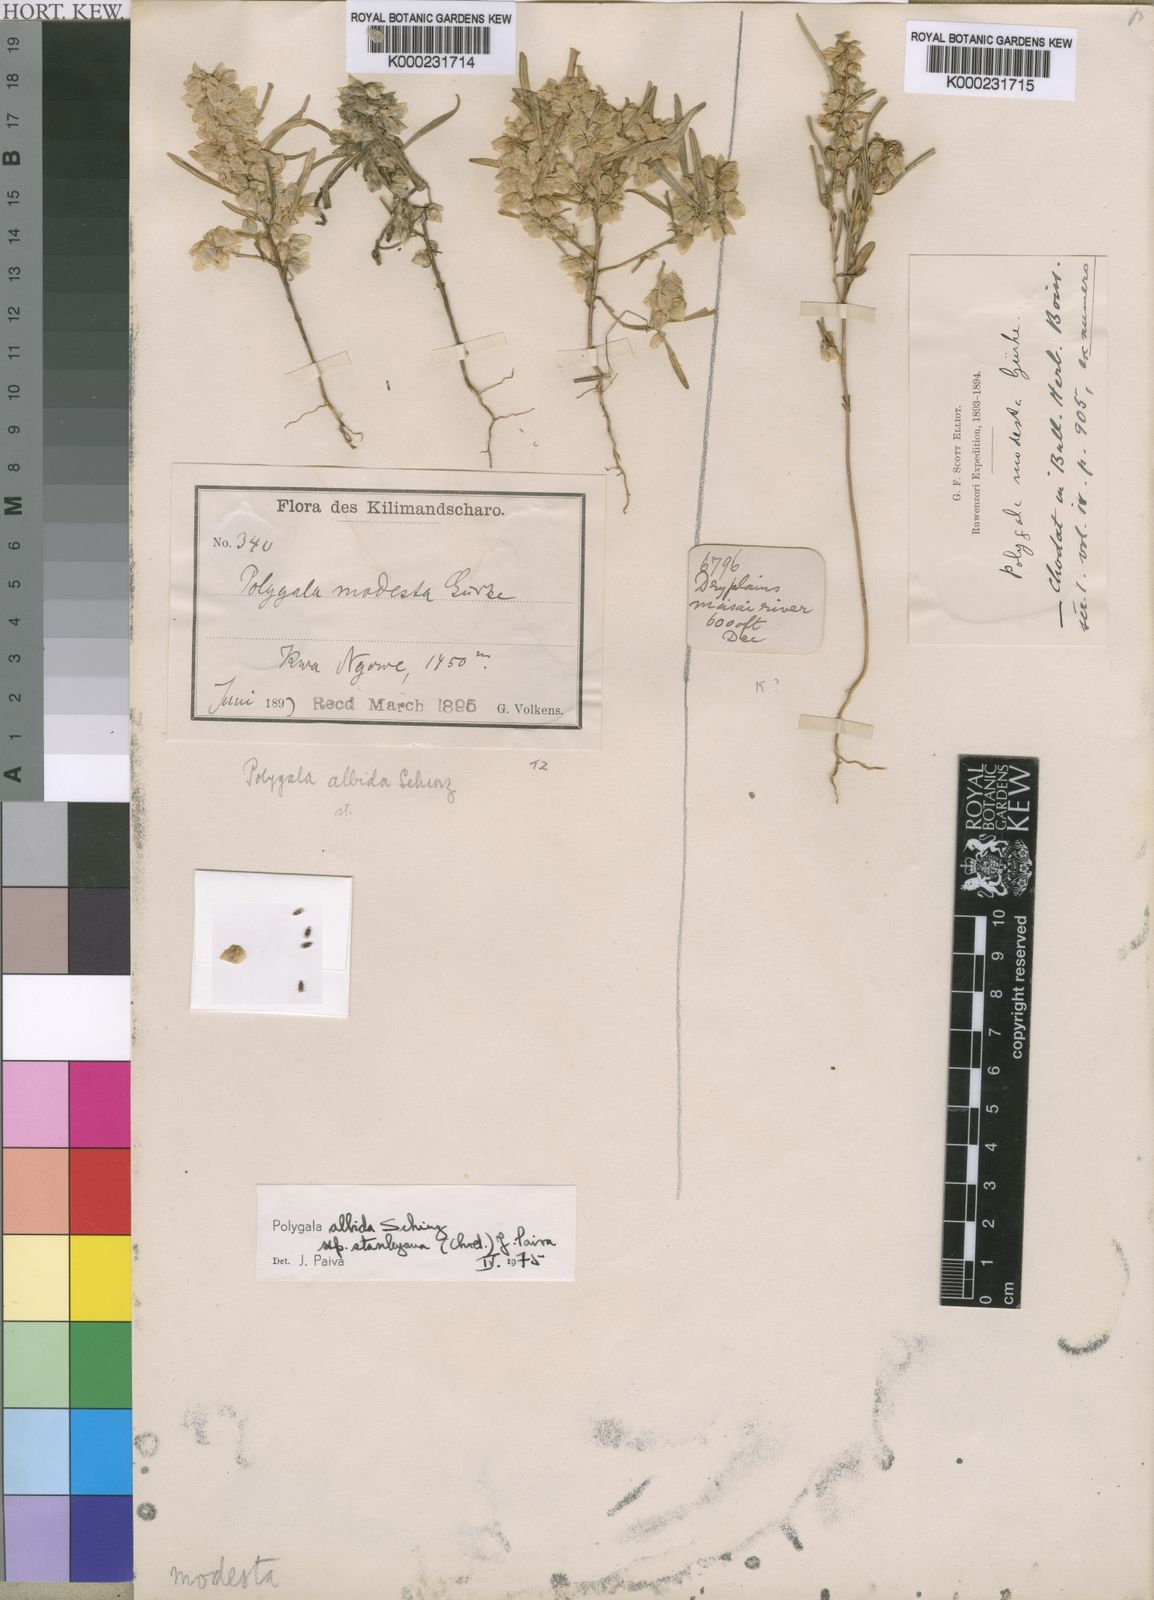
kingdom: Plantae
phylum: Tracheophyta
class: Magnoliopsida
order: Fabales
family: Polygalaceae
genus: Polygala
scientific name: Polygala albida
